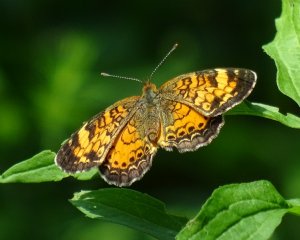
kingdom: Animalia
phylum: Arthropoda
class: Insecta
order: Lepidoptera
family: Nymphalidae
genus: Phyciodes
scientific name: Phyciodes tharos
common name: Northern Crescent
